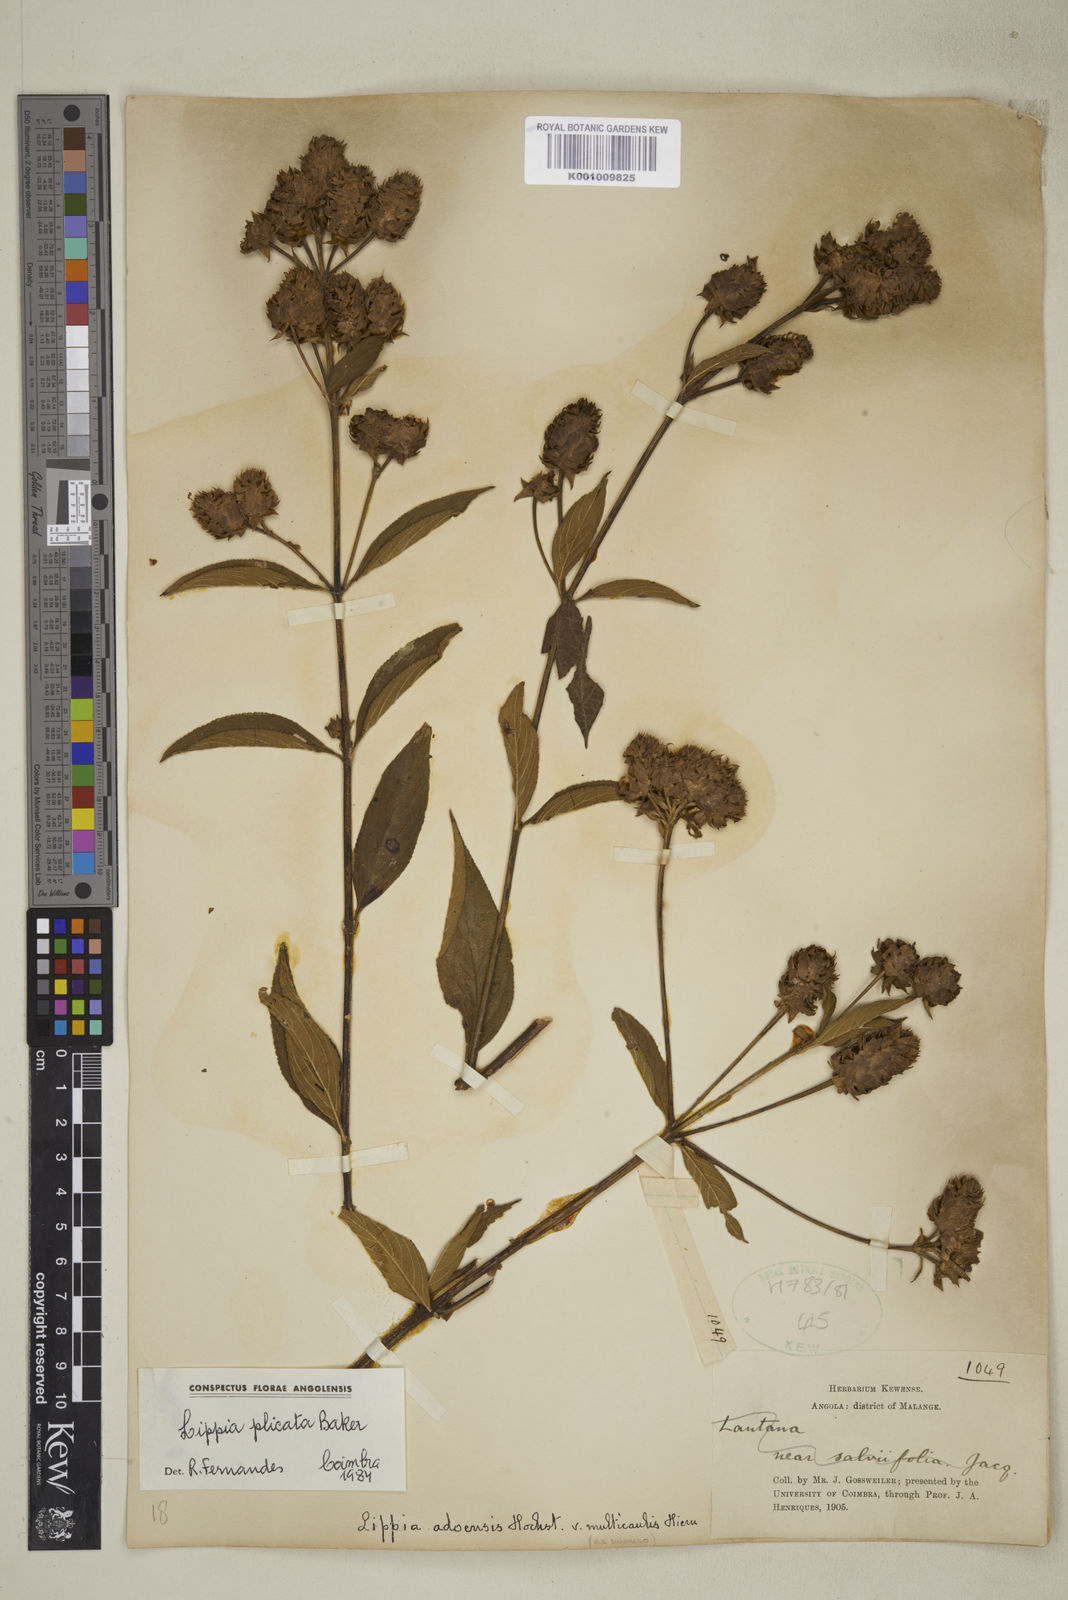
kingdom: Plantae
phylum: Tracheophyta
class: Magnoliopsida
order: Lamiales
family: Verbenaceae
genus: Lippia
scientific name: Lippia plicata
